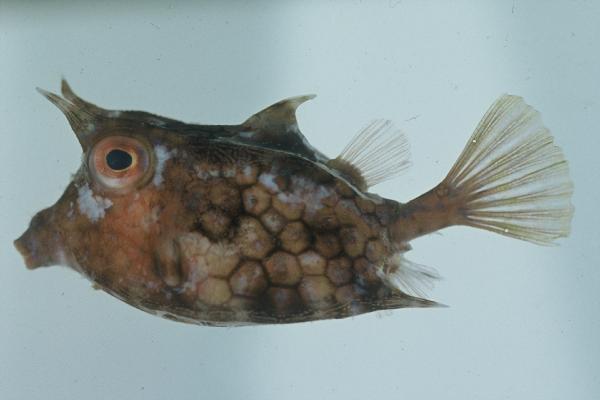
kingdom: Animalia
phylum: Chordata
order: Tetraodontiformes
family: Ostraciidae
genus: Lactoria
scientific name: Lactoria fornasini
